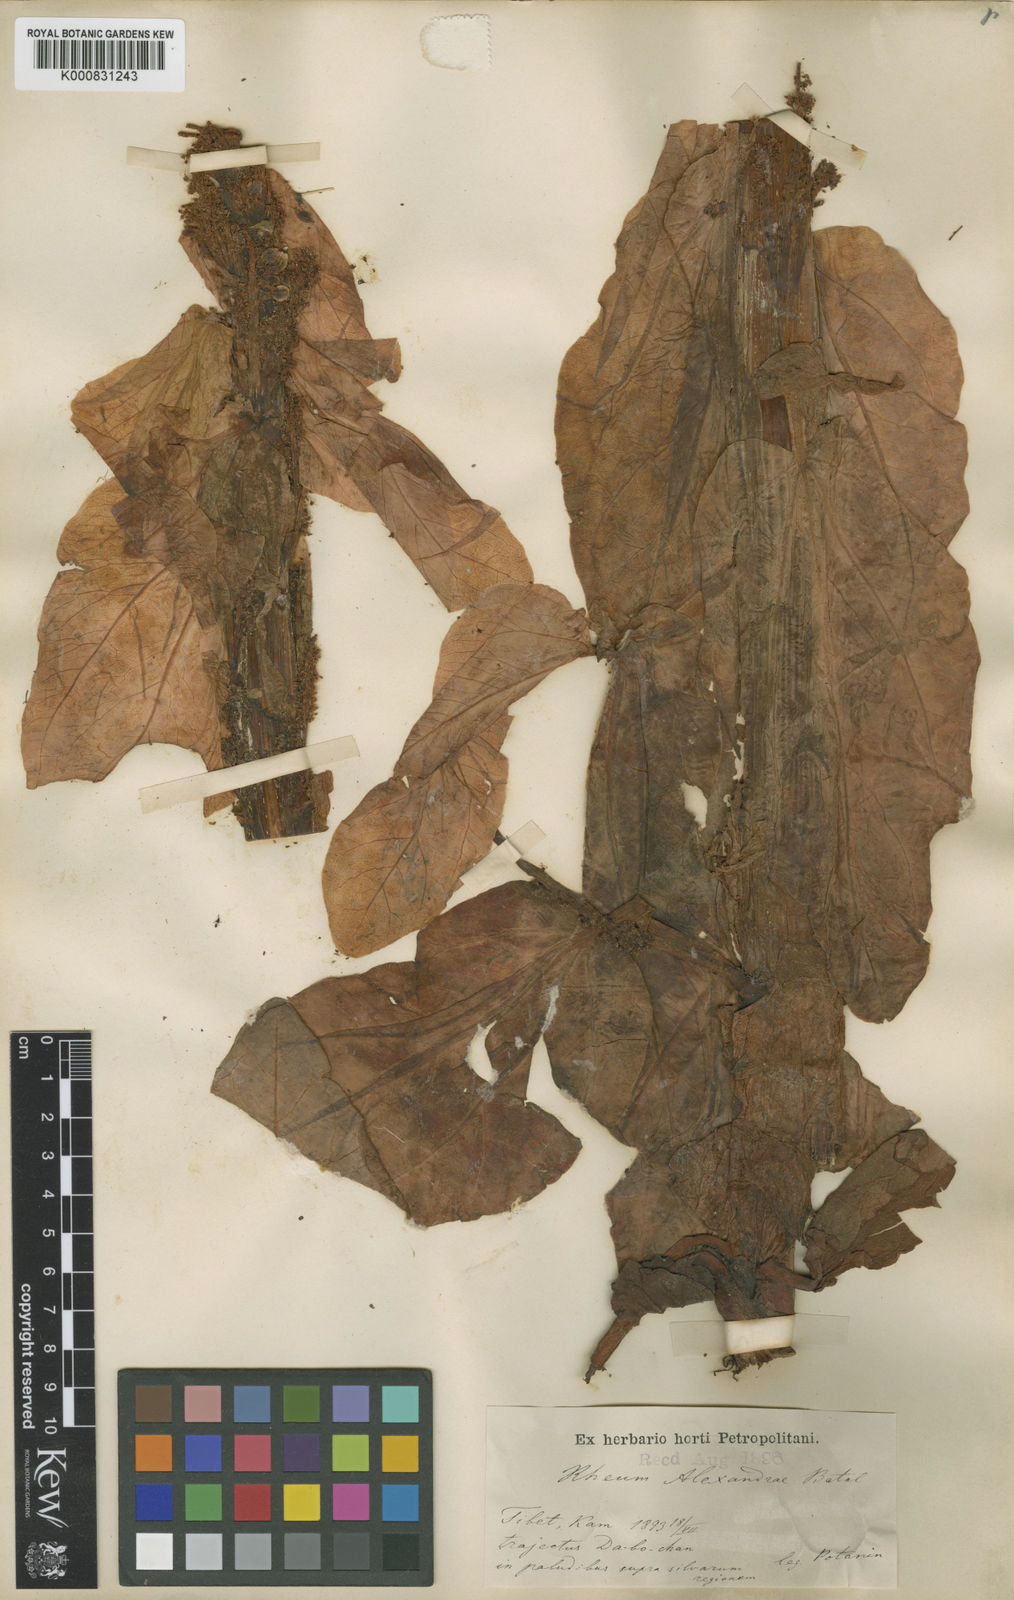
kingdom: Plantae
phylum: Tracheophyta
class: Magnoliopsida
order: Caryophyllales
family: Polygonaceae
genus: Rheum
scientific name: Rheum alexandrae
